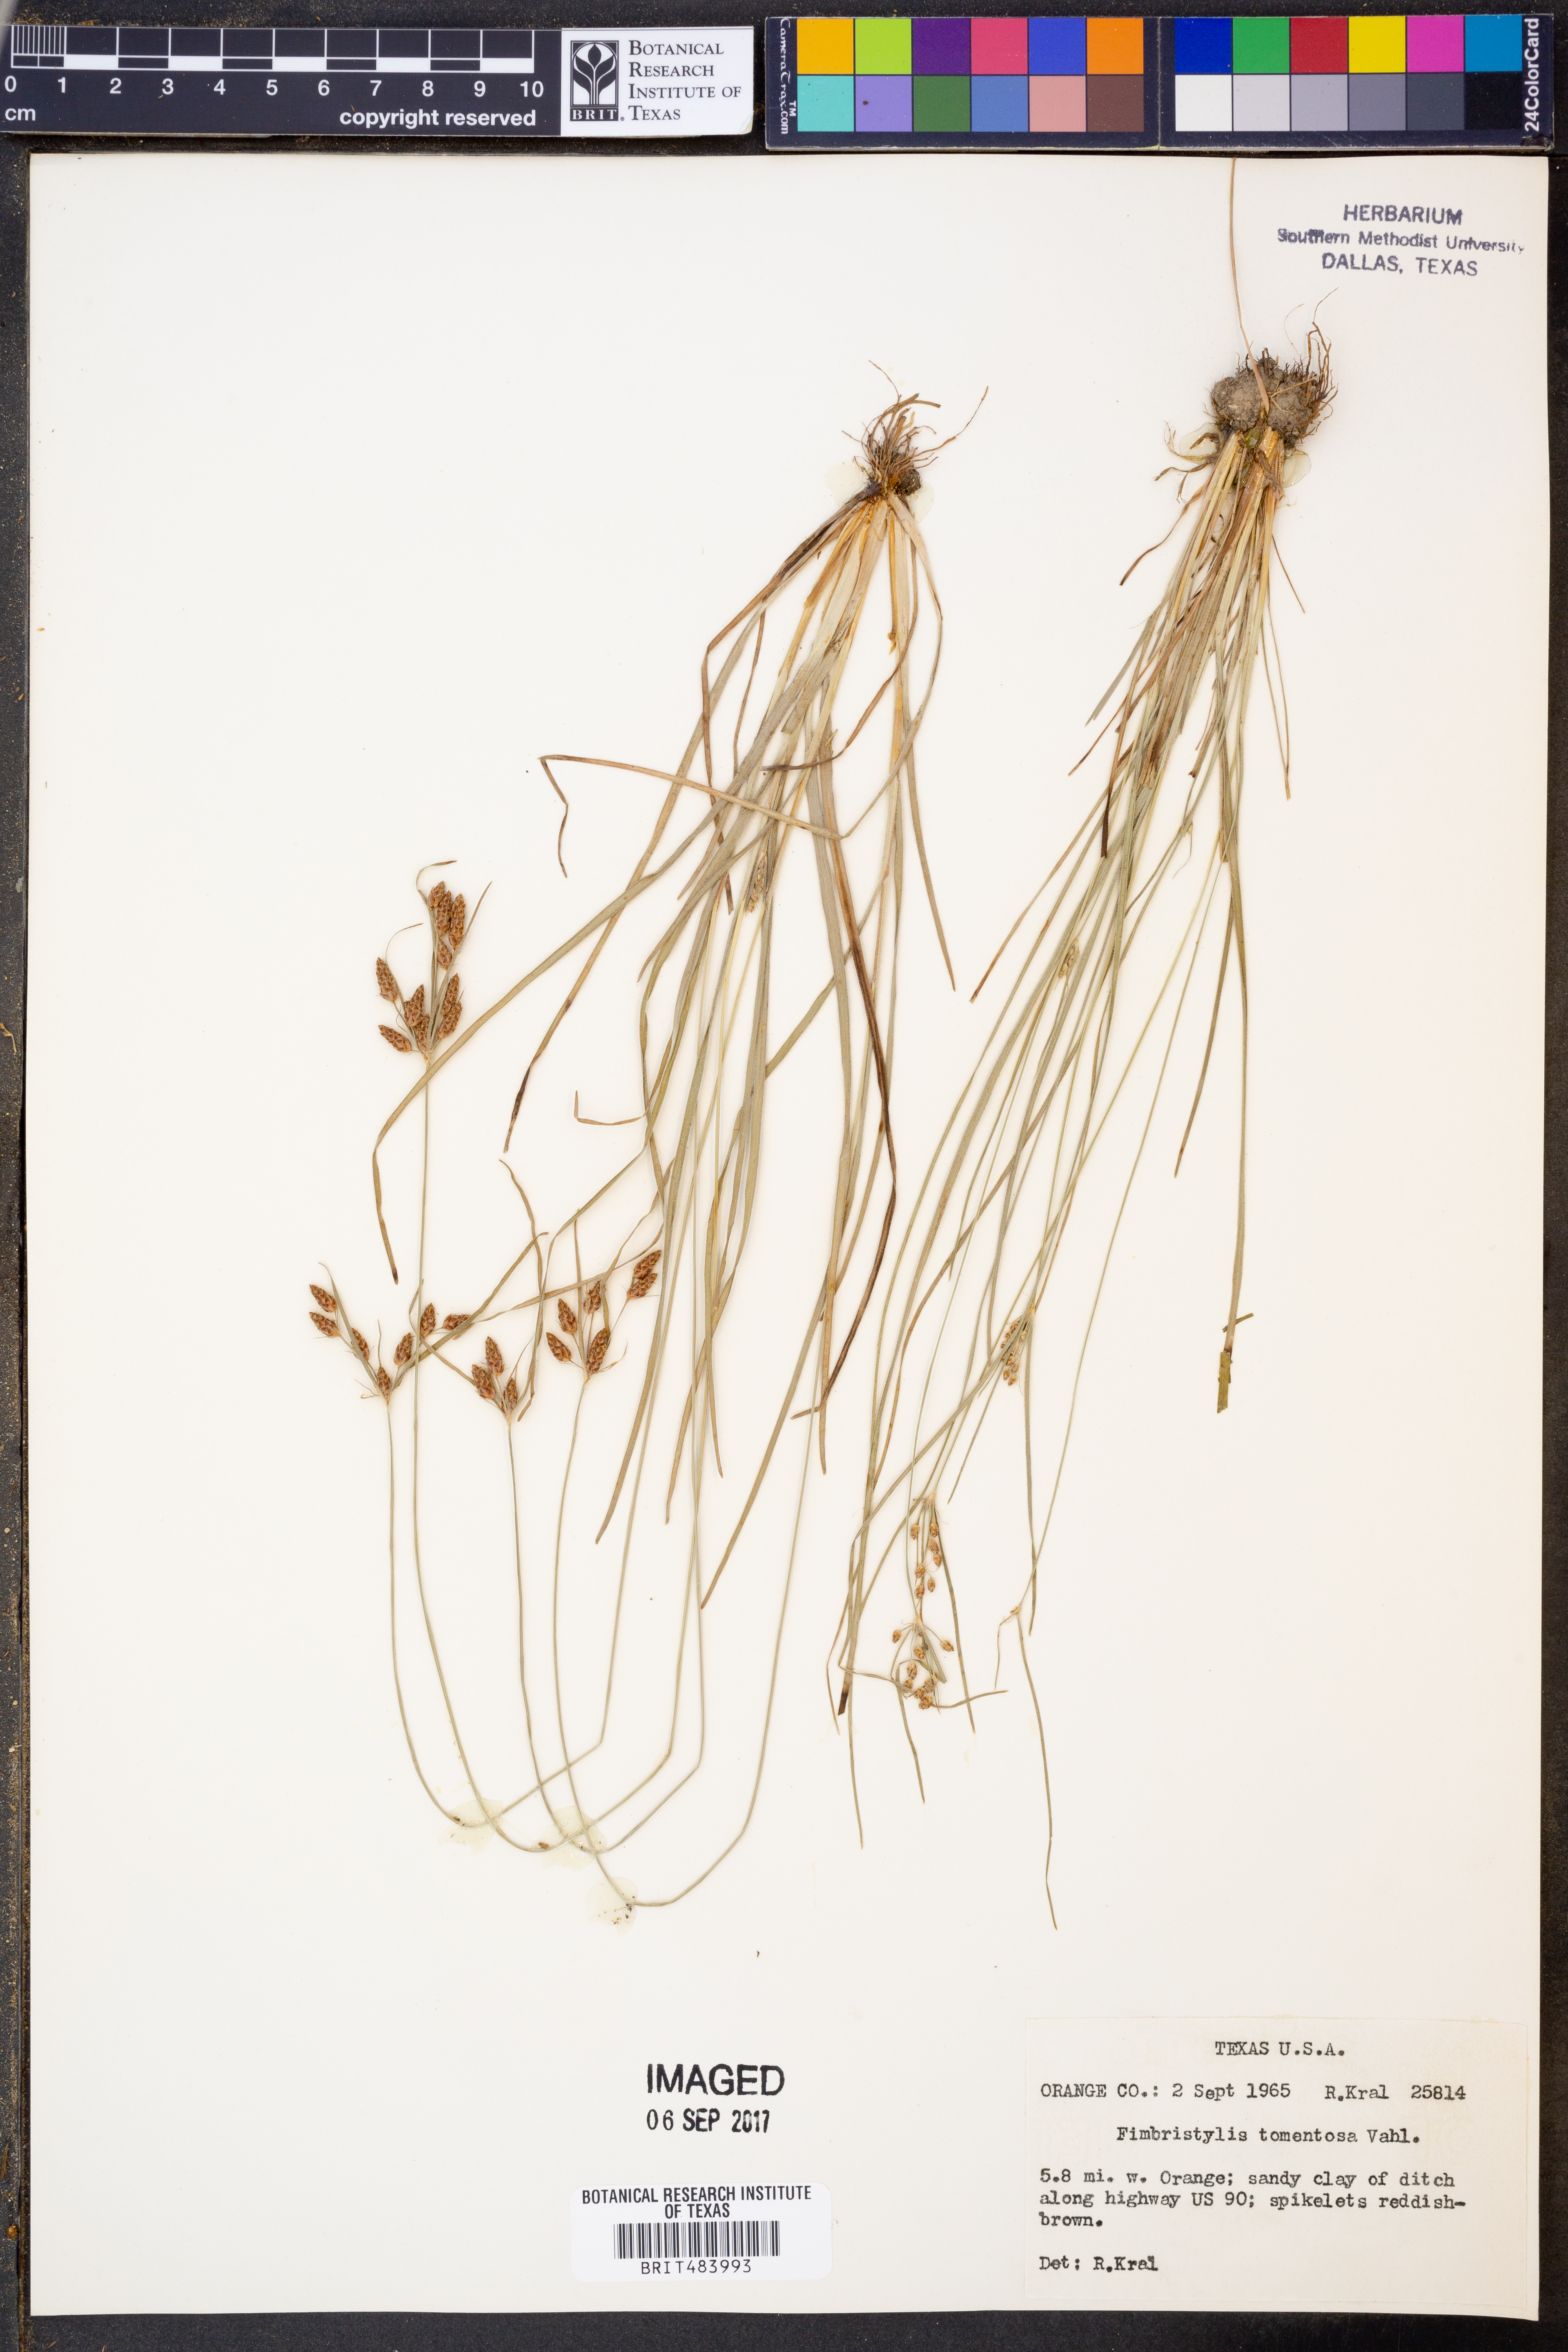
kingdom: Plantae
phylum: Tracheophyta
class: Liliopsida
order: Poales
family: Cyperaceae
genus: Fimbristylis
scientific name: Fimbristylis dichotoma
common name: Forked fimbry
